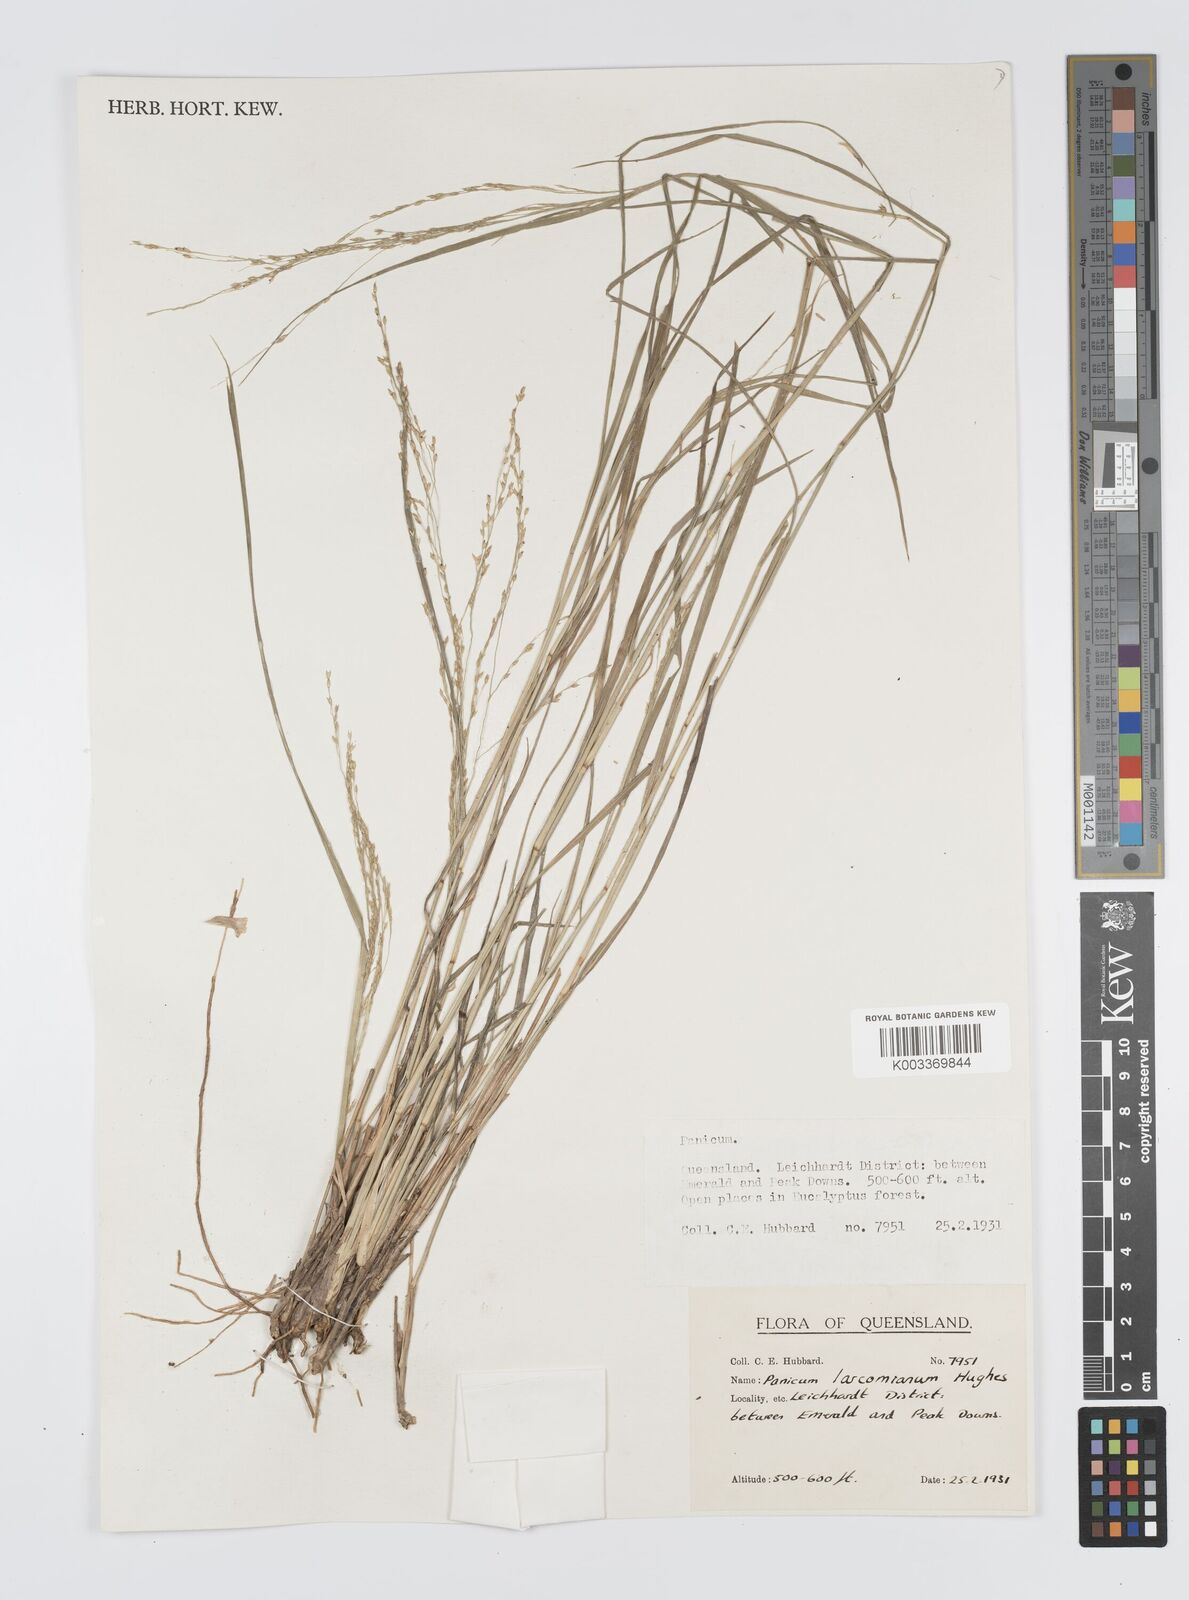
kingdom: Plantae
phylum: Tracheophyta
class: Liliopsida
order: Poales
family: Poaceae
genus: Panicum
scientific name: Panicum larcomianum
